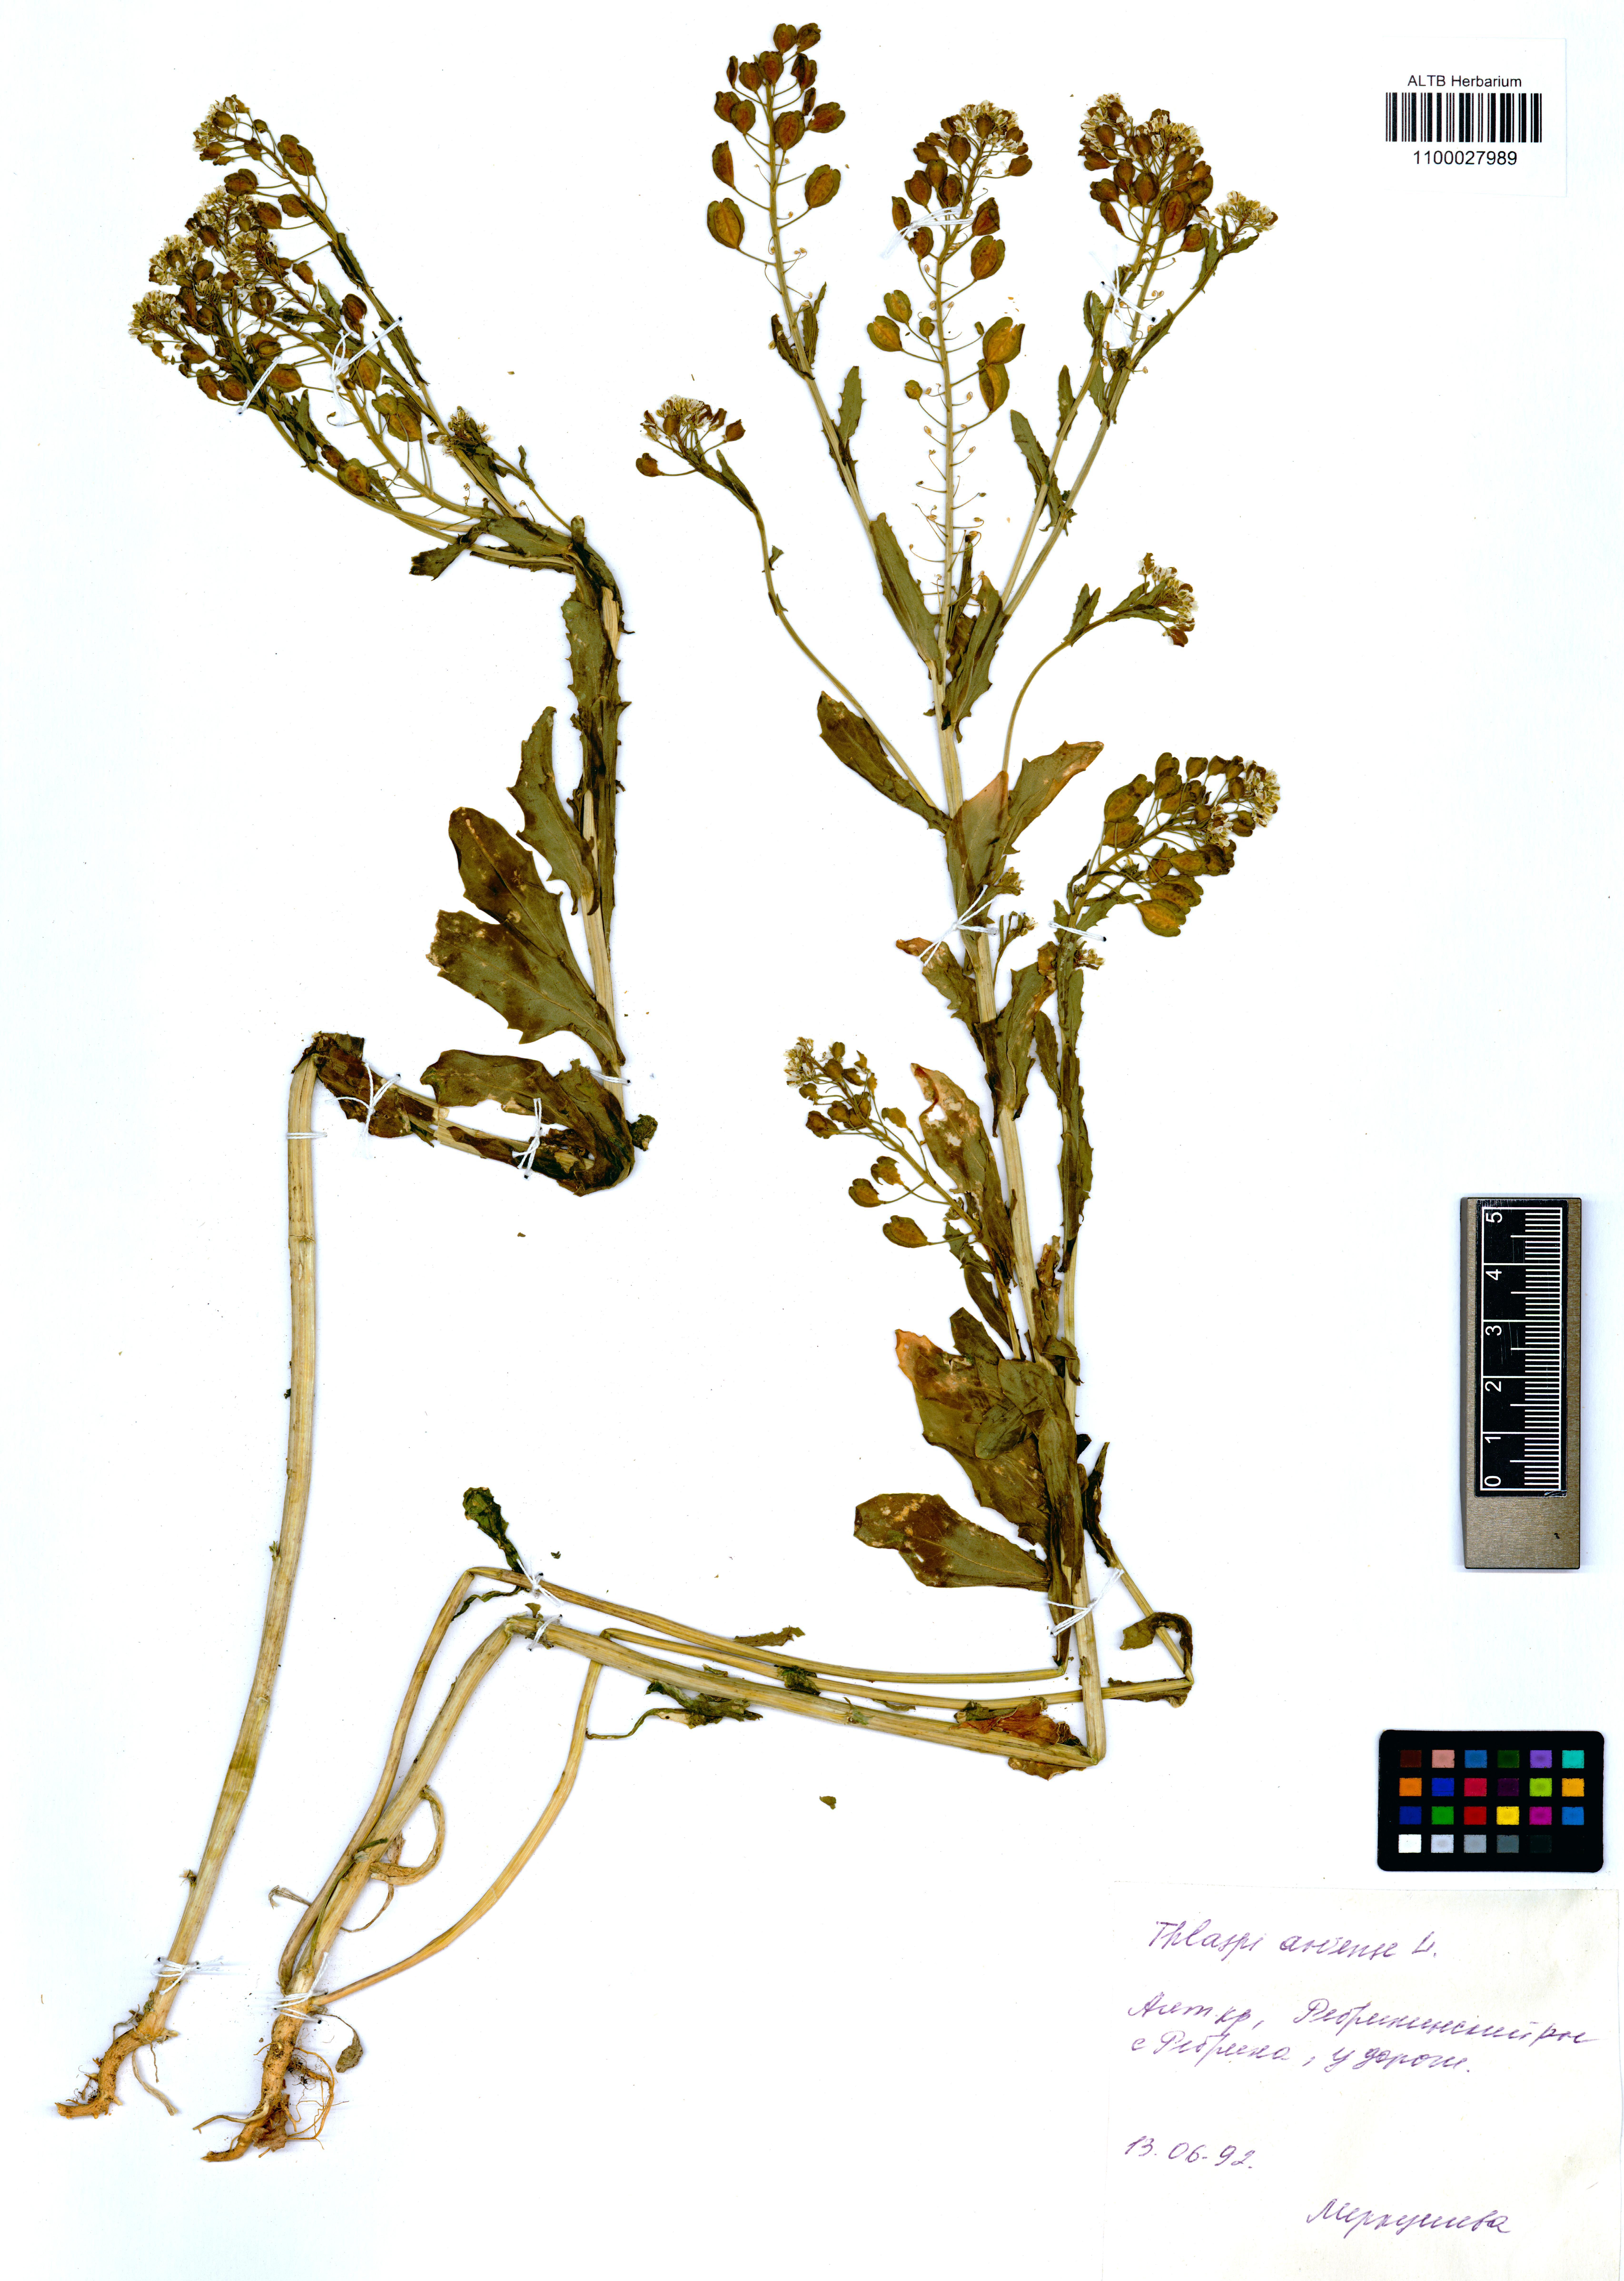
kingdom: Plantae
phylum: Tracheophyta
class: Magnoliopsida
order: Brassicales
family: Brassicaceae
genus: Thlaspi
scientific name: Thlaspi arvense
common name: Field pennycress
